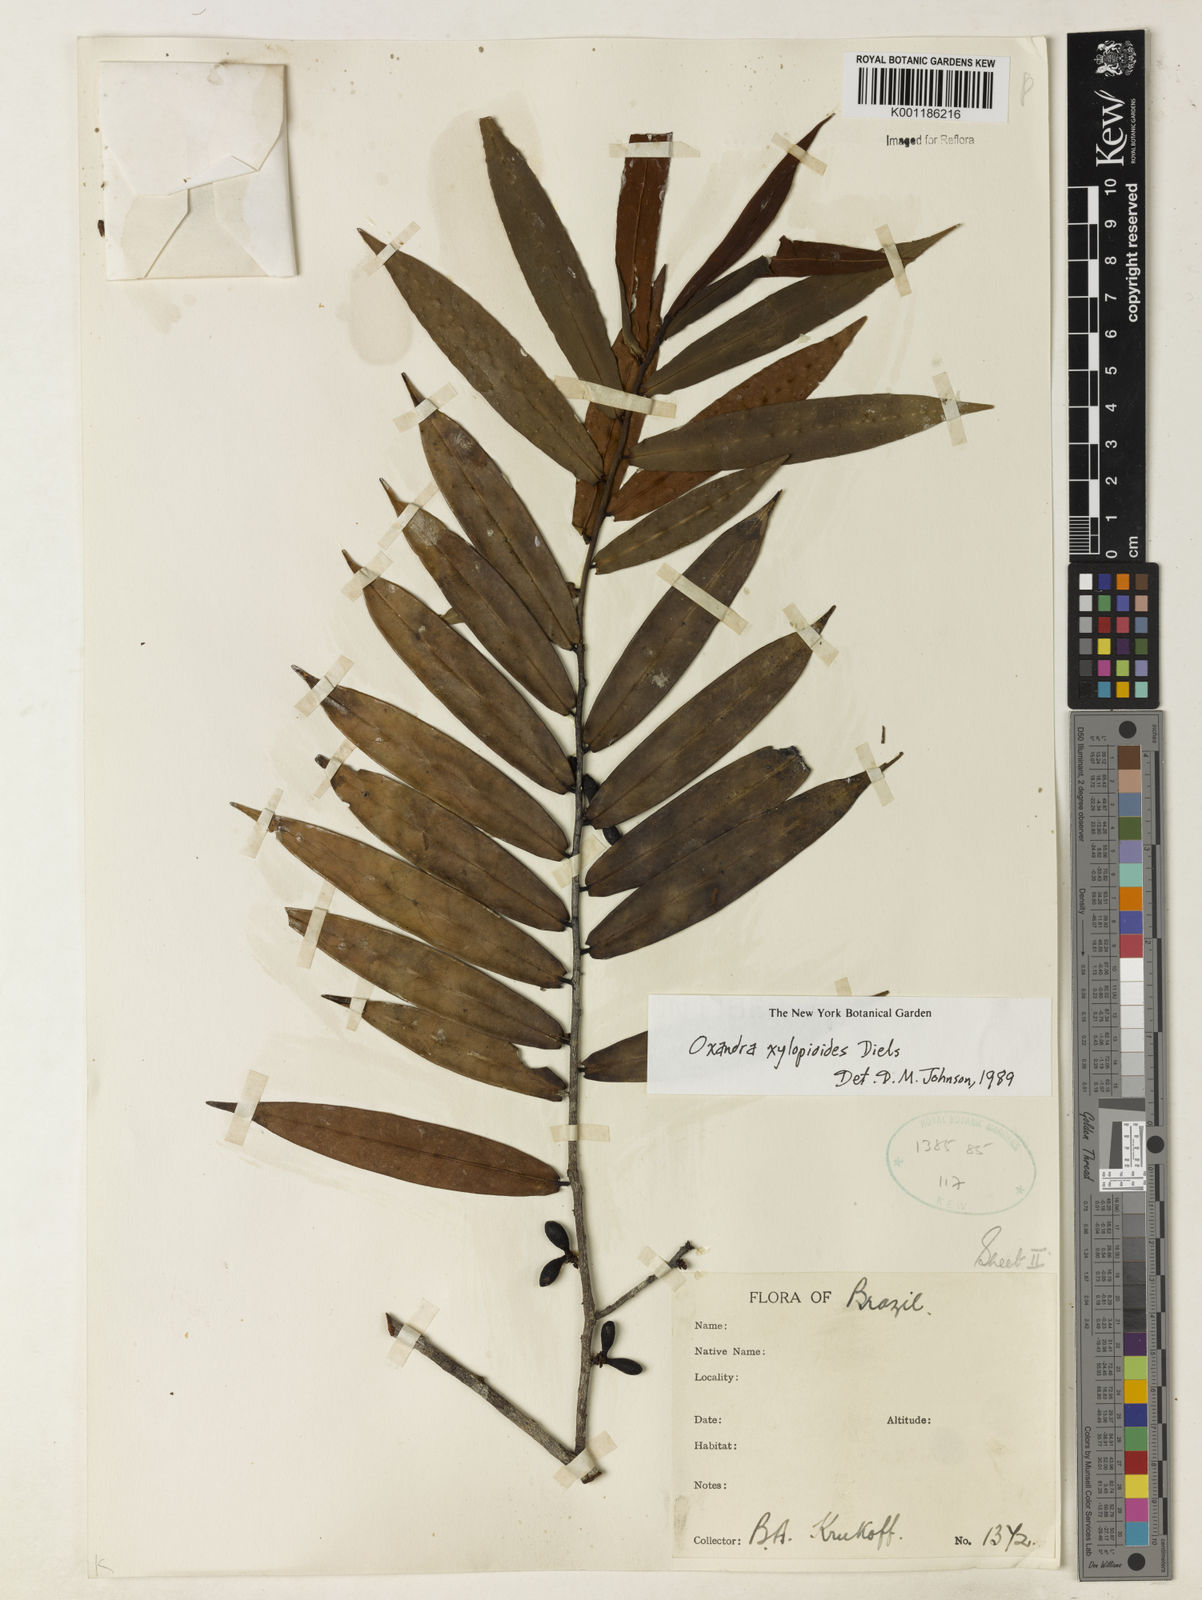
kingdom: Plantae
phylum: Tracheophyta
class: Magnoliopsida
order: Magnoliales
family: Annonaceae
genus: Oxandra
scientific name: Oxandra xylopioides
